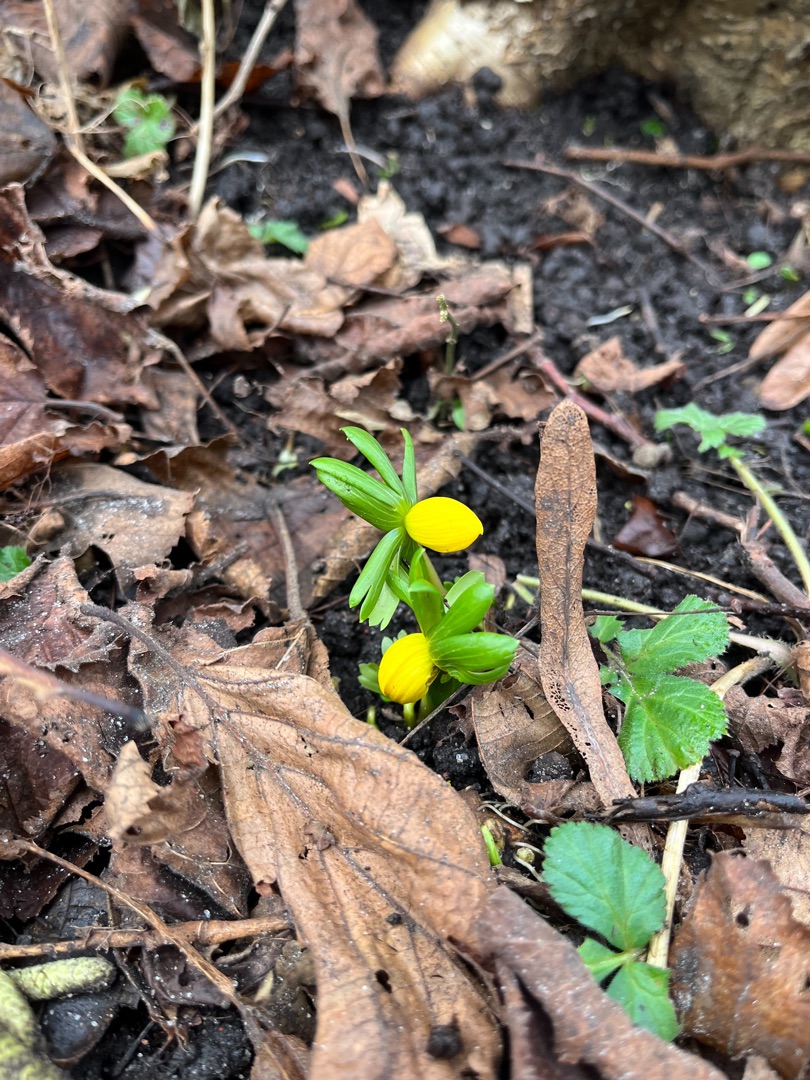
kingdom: Plantae
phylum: Tracheophyta
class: Magnoliopsida
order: Ranunculales
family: Ranunculaceae
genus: Eranthis
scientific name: Eranthis hyemalis
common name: Erantis
